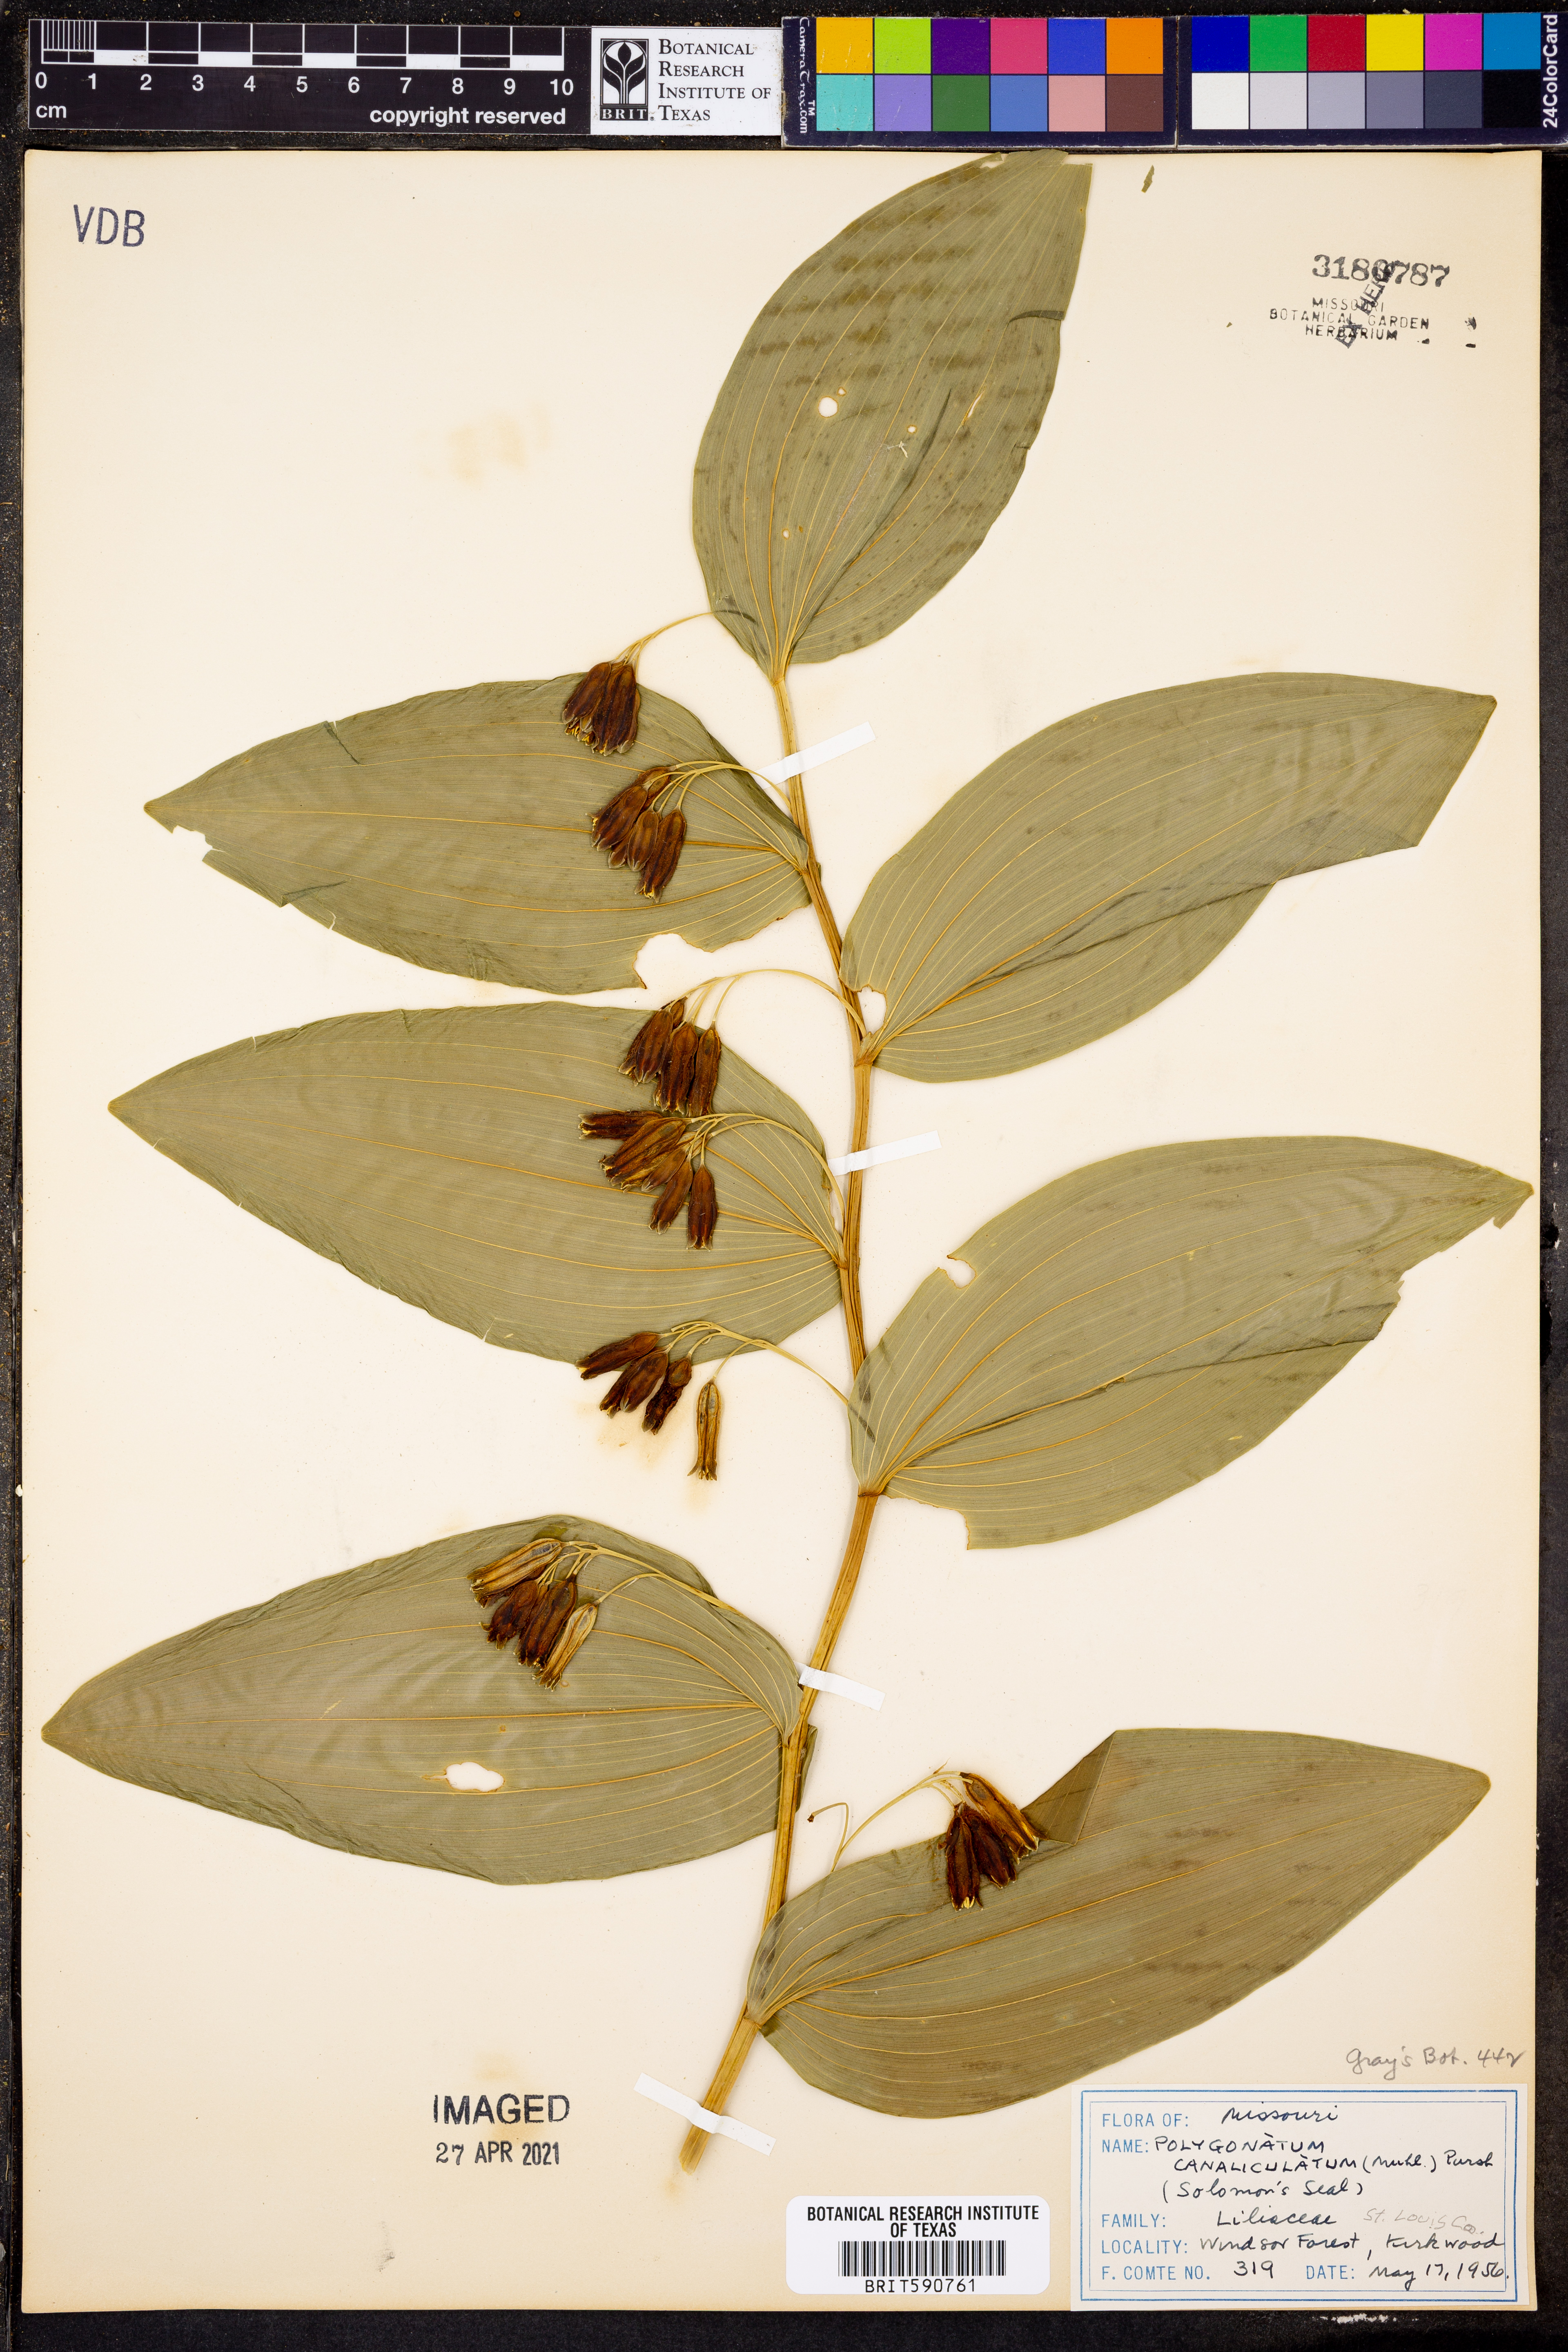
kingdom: Plantae
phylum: Tracheophyta
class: Liliopsida
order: Asparagales
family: Asparagaceae
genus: Polygonatum
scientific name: Polygonatum biflorum
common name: American solomon's-seal
